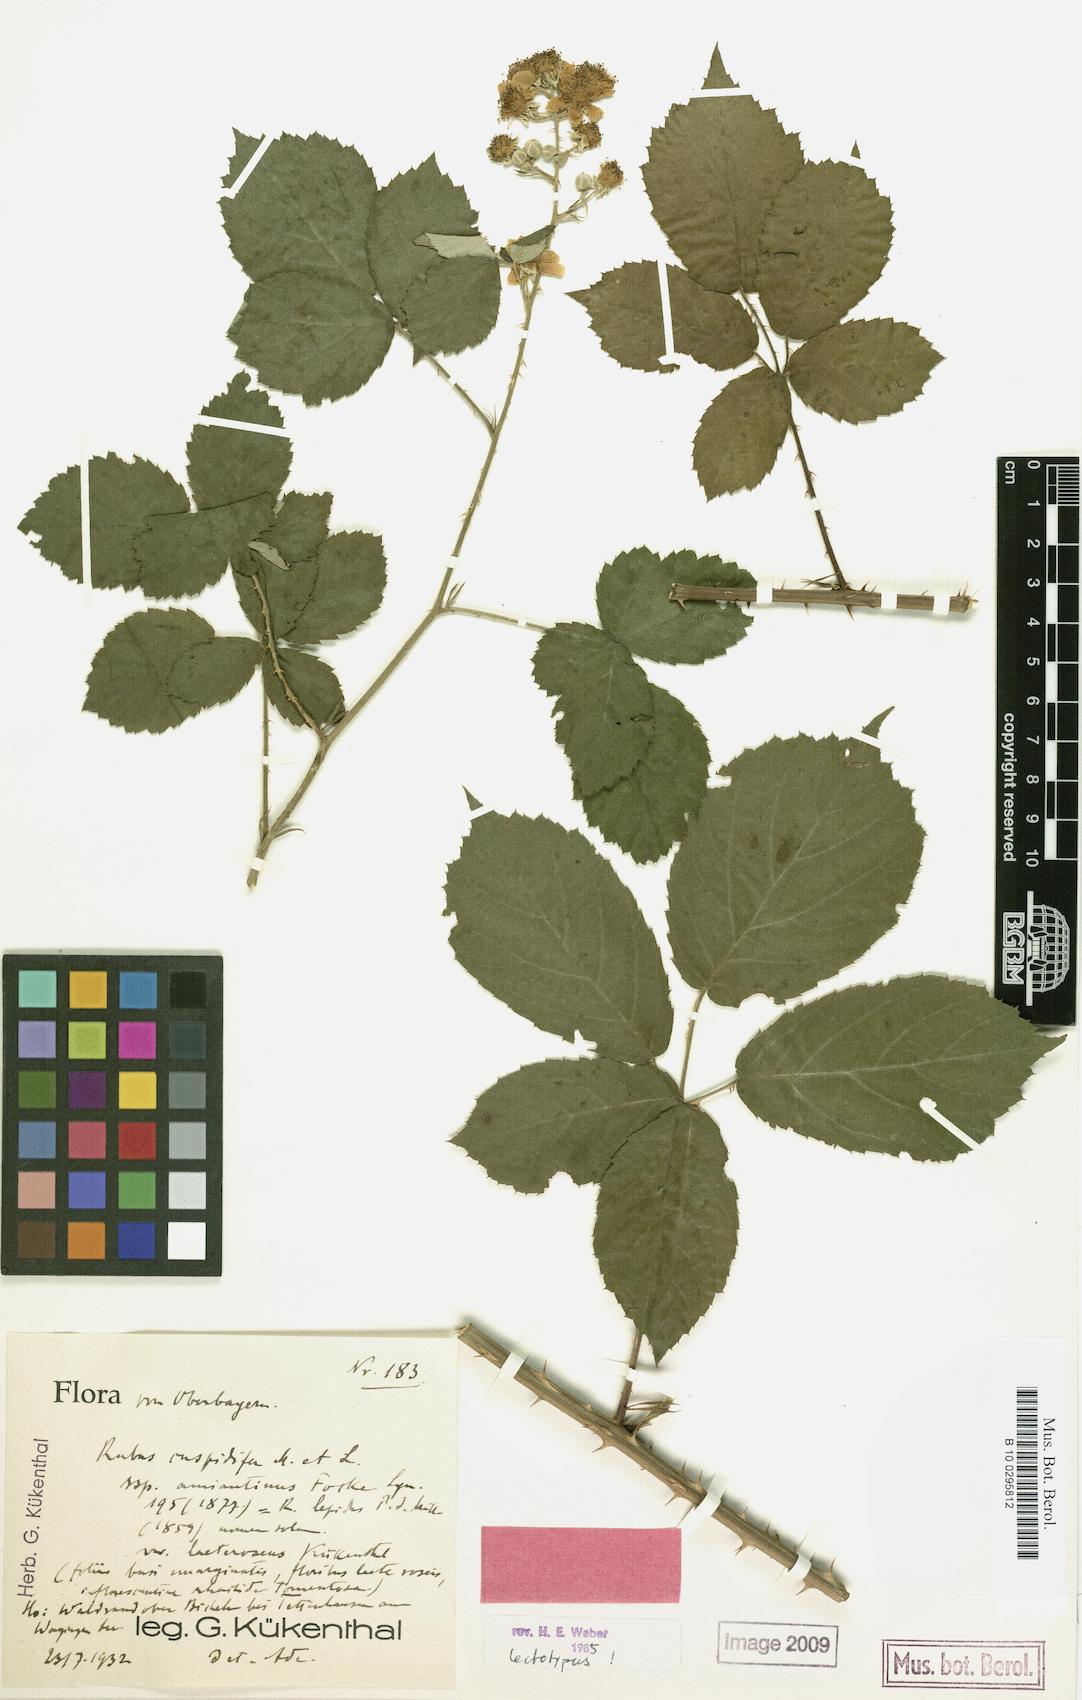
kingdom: Plantae
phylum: Tracheophyta
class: Magnoliopsida
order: Rosales
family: Rosaceae
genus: Rubus
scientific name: Rubus cuspidiferus
